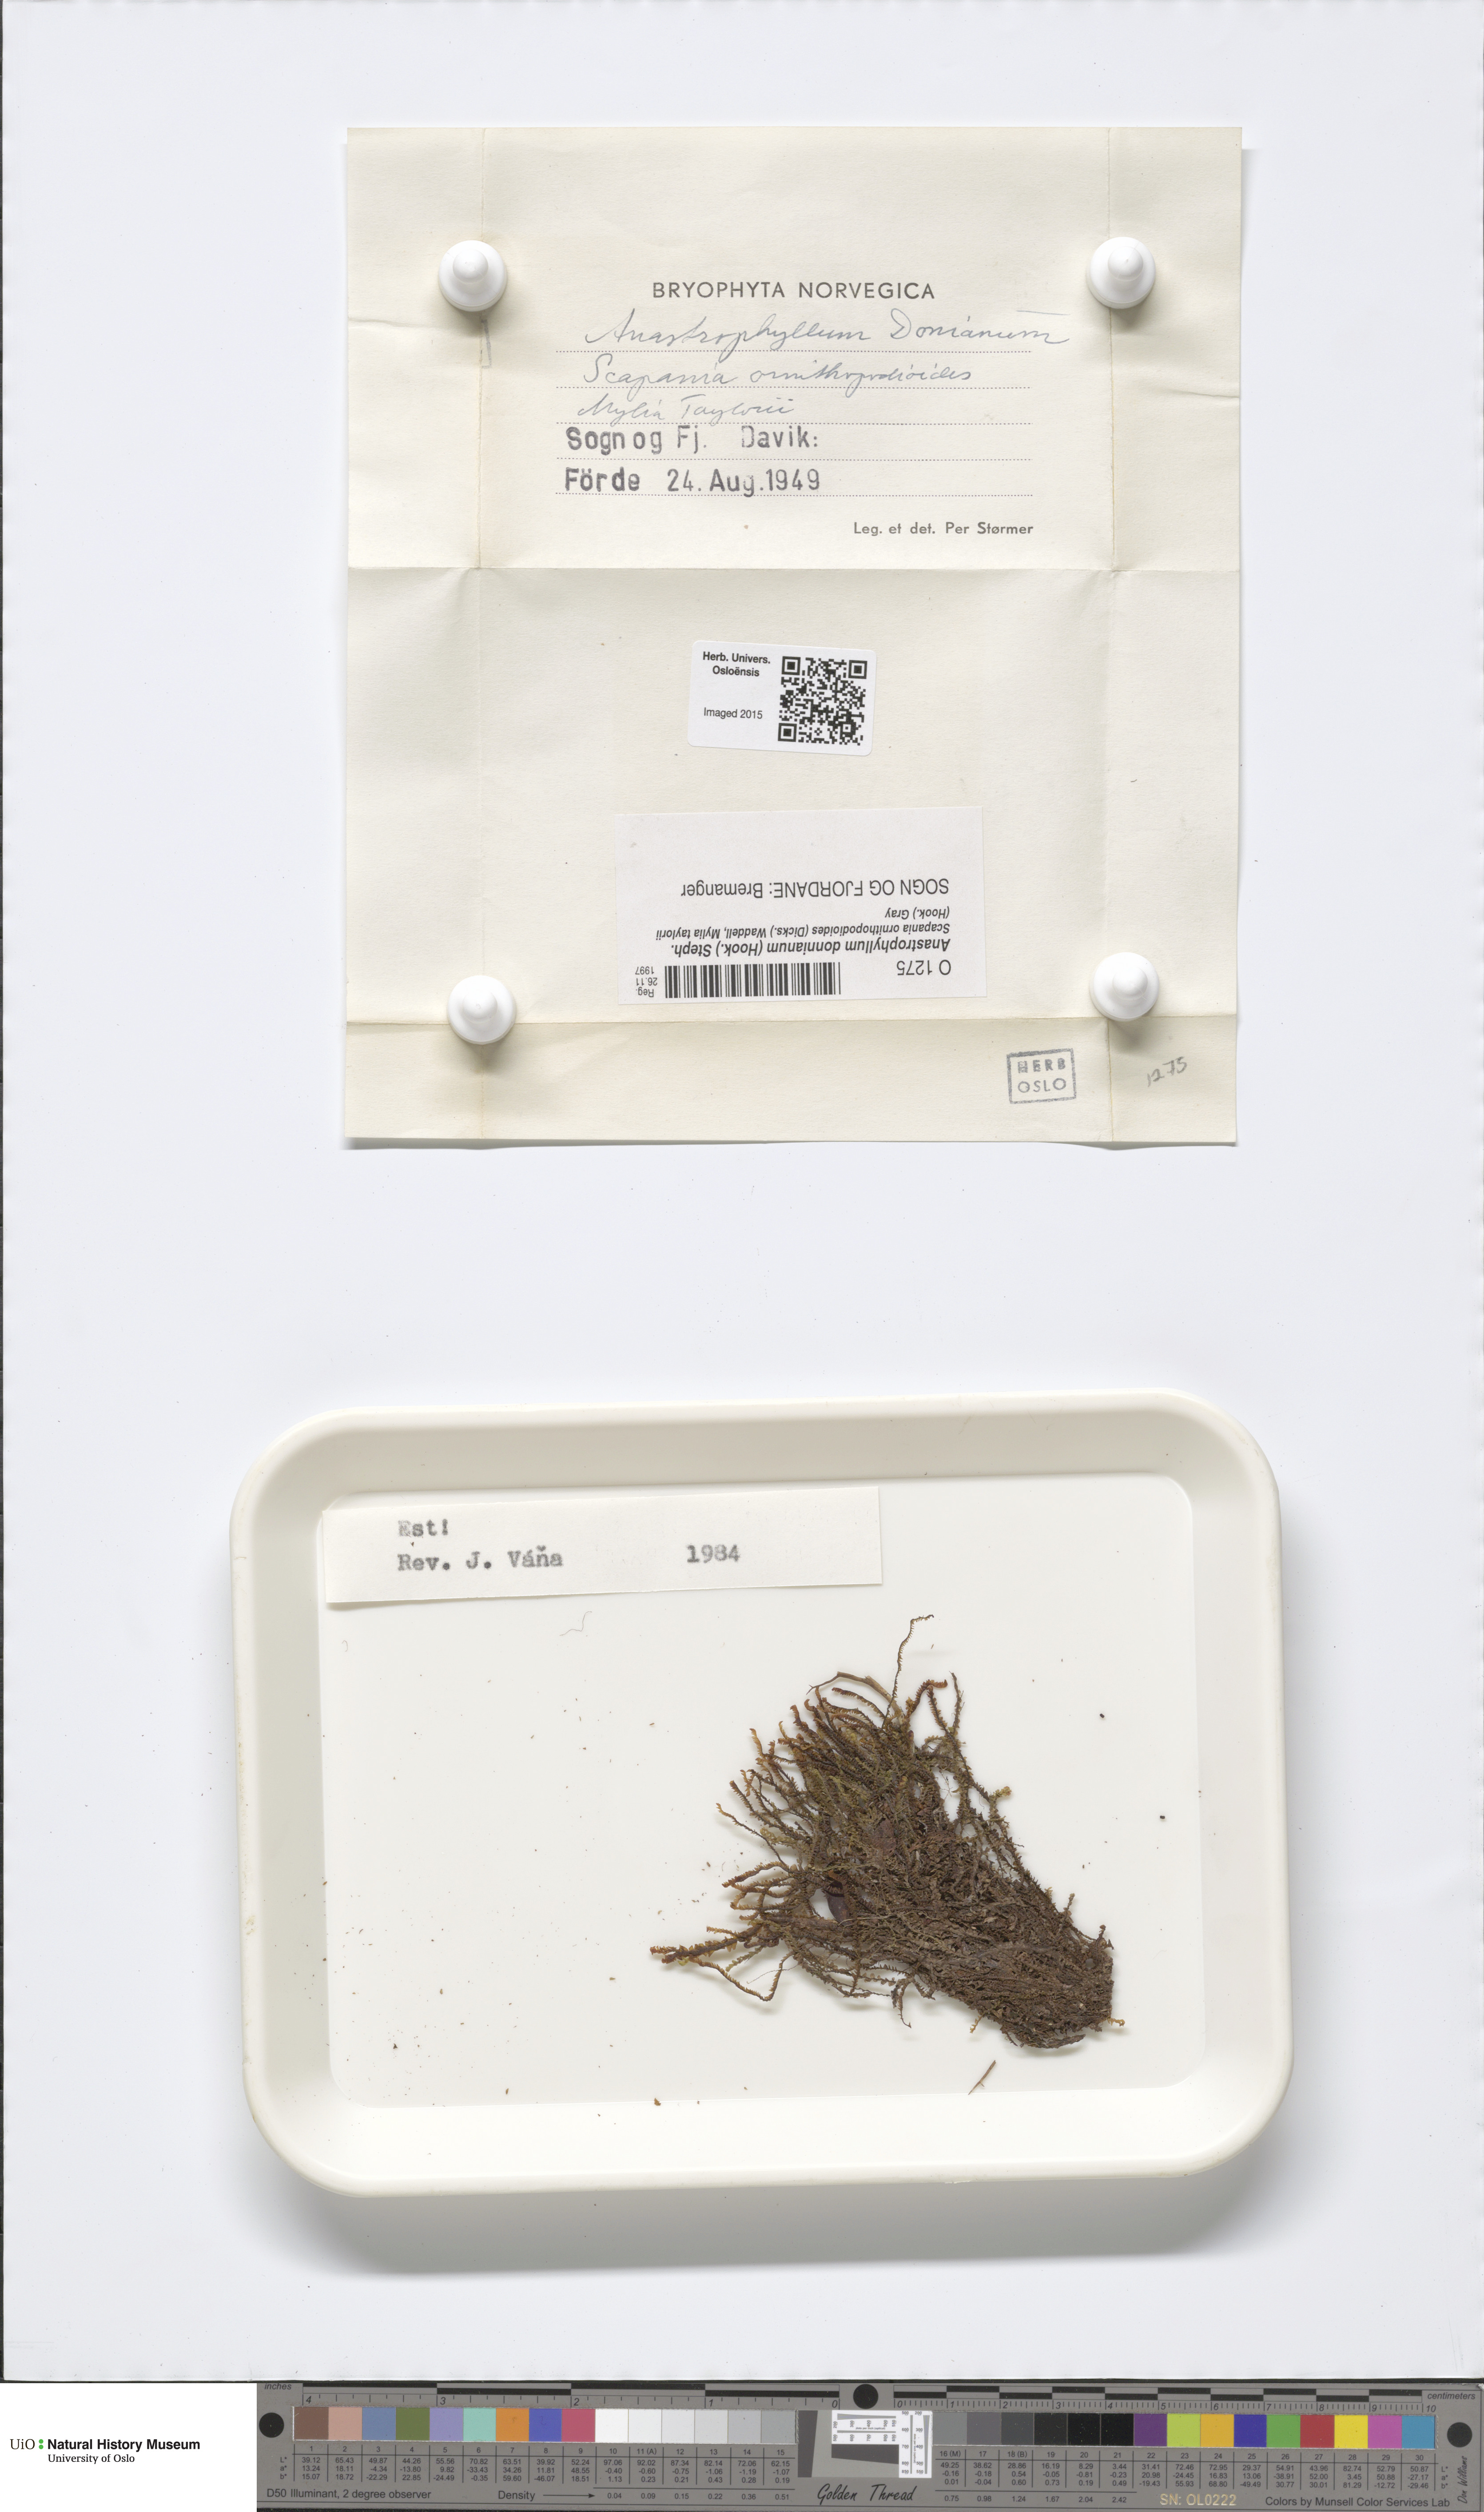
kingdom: Plantae
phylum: Marchantiophyta
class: Jungermanniopsida
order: Jungermanniales
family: Anastrophyllaceae
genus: Anastrophyllum
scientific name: Anastrophyllum donnianum
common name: Donn's notchwort
